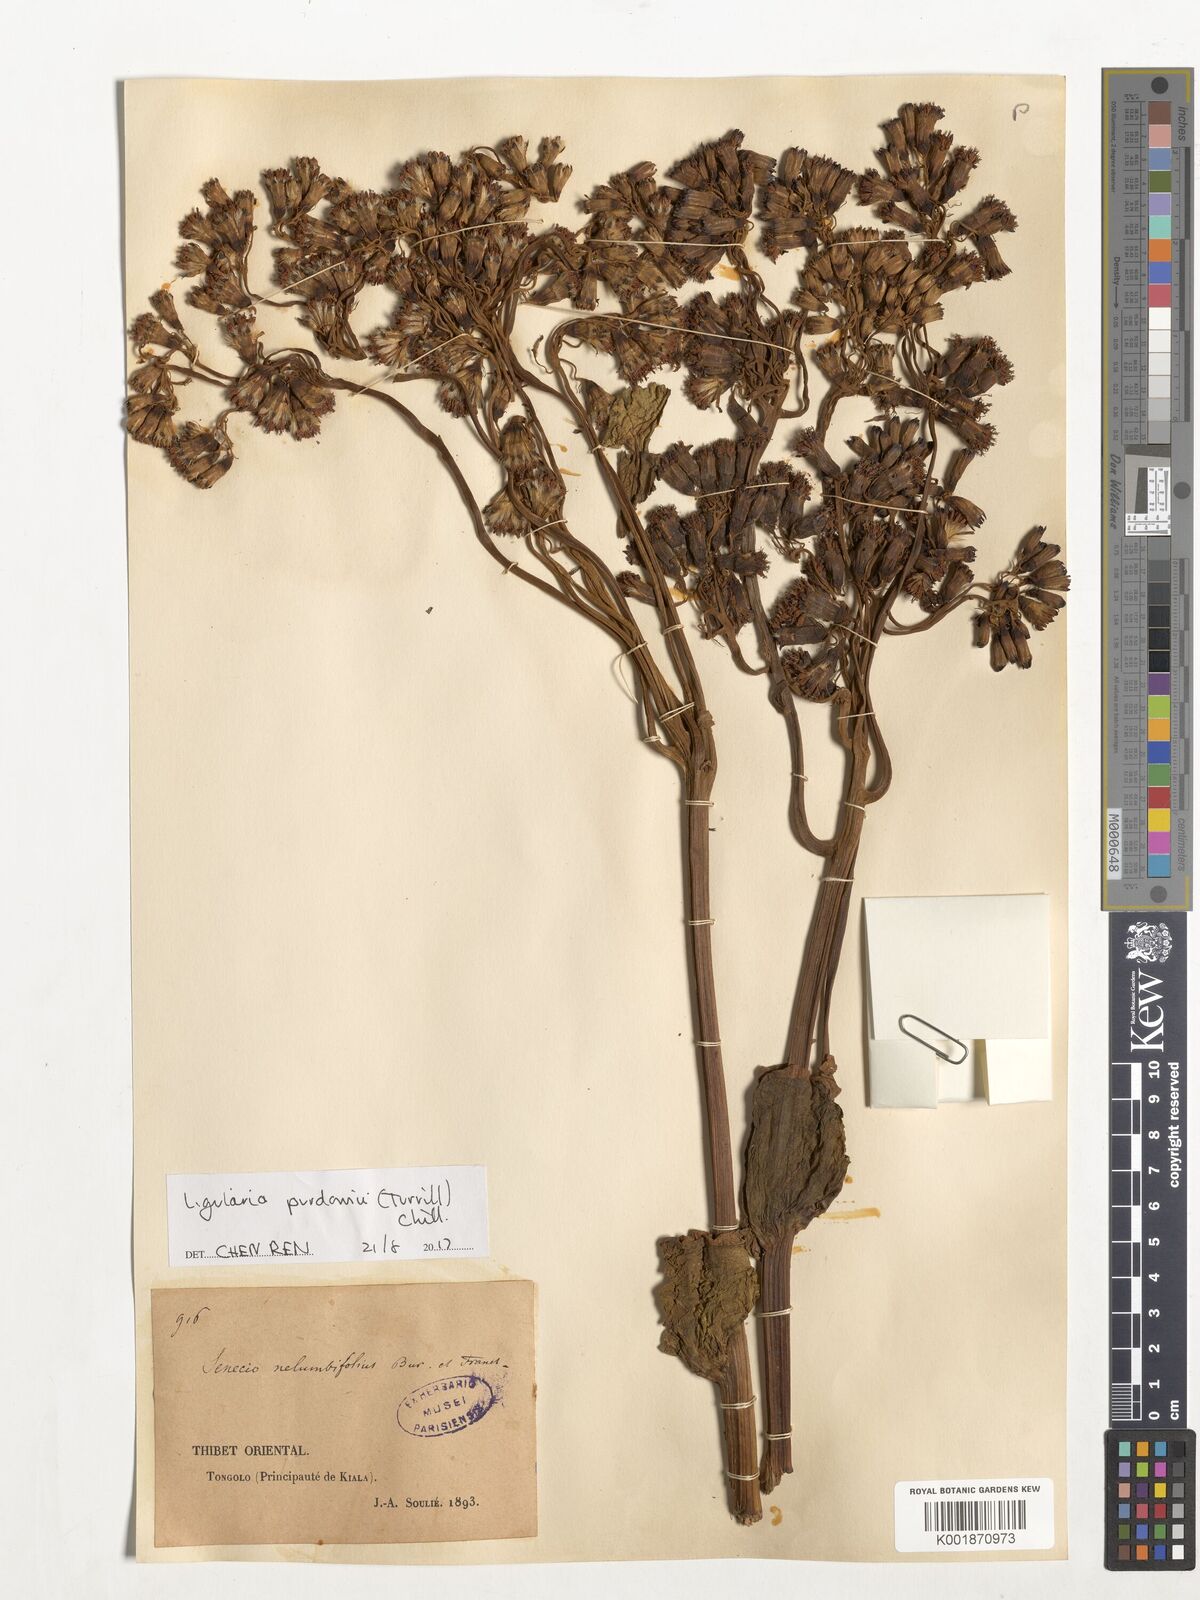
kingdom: Plantae
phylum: Tracheophyta
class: Magnoliopsida
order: Asterales
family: Asteraceae
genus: Ligularia
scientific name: Ligularia purdomii
